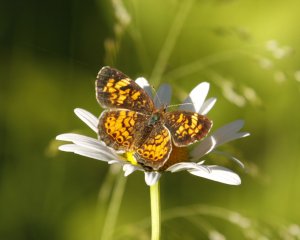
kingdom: Animalia
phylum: Arthropoda
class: Insecta
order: Lepidoptera
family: Nymphalidae
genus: Phyciodes
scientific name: Phyciodes tharos
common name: Pearl Crescent
